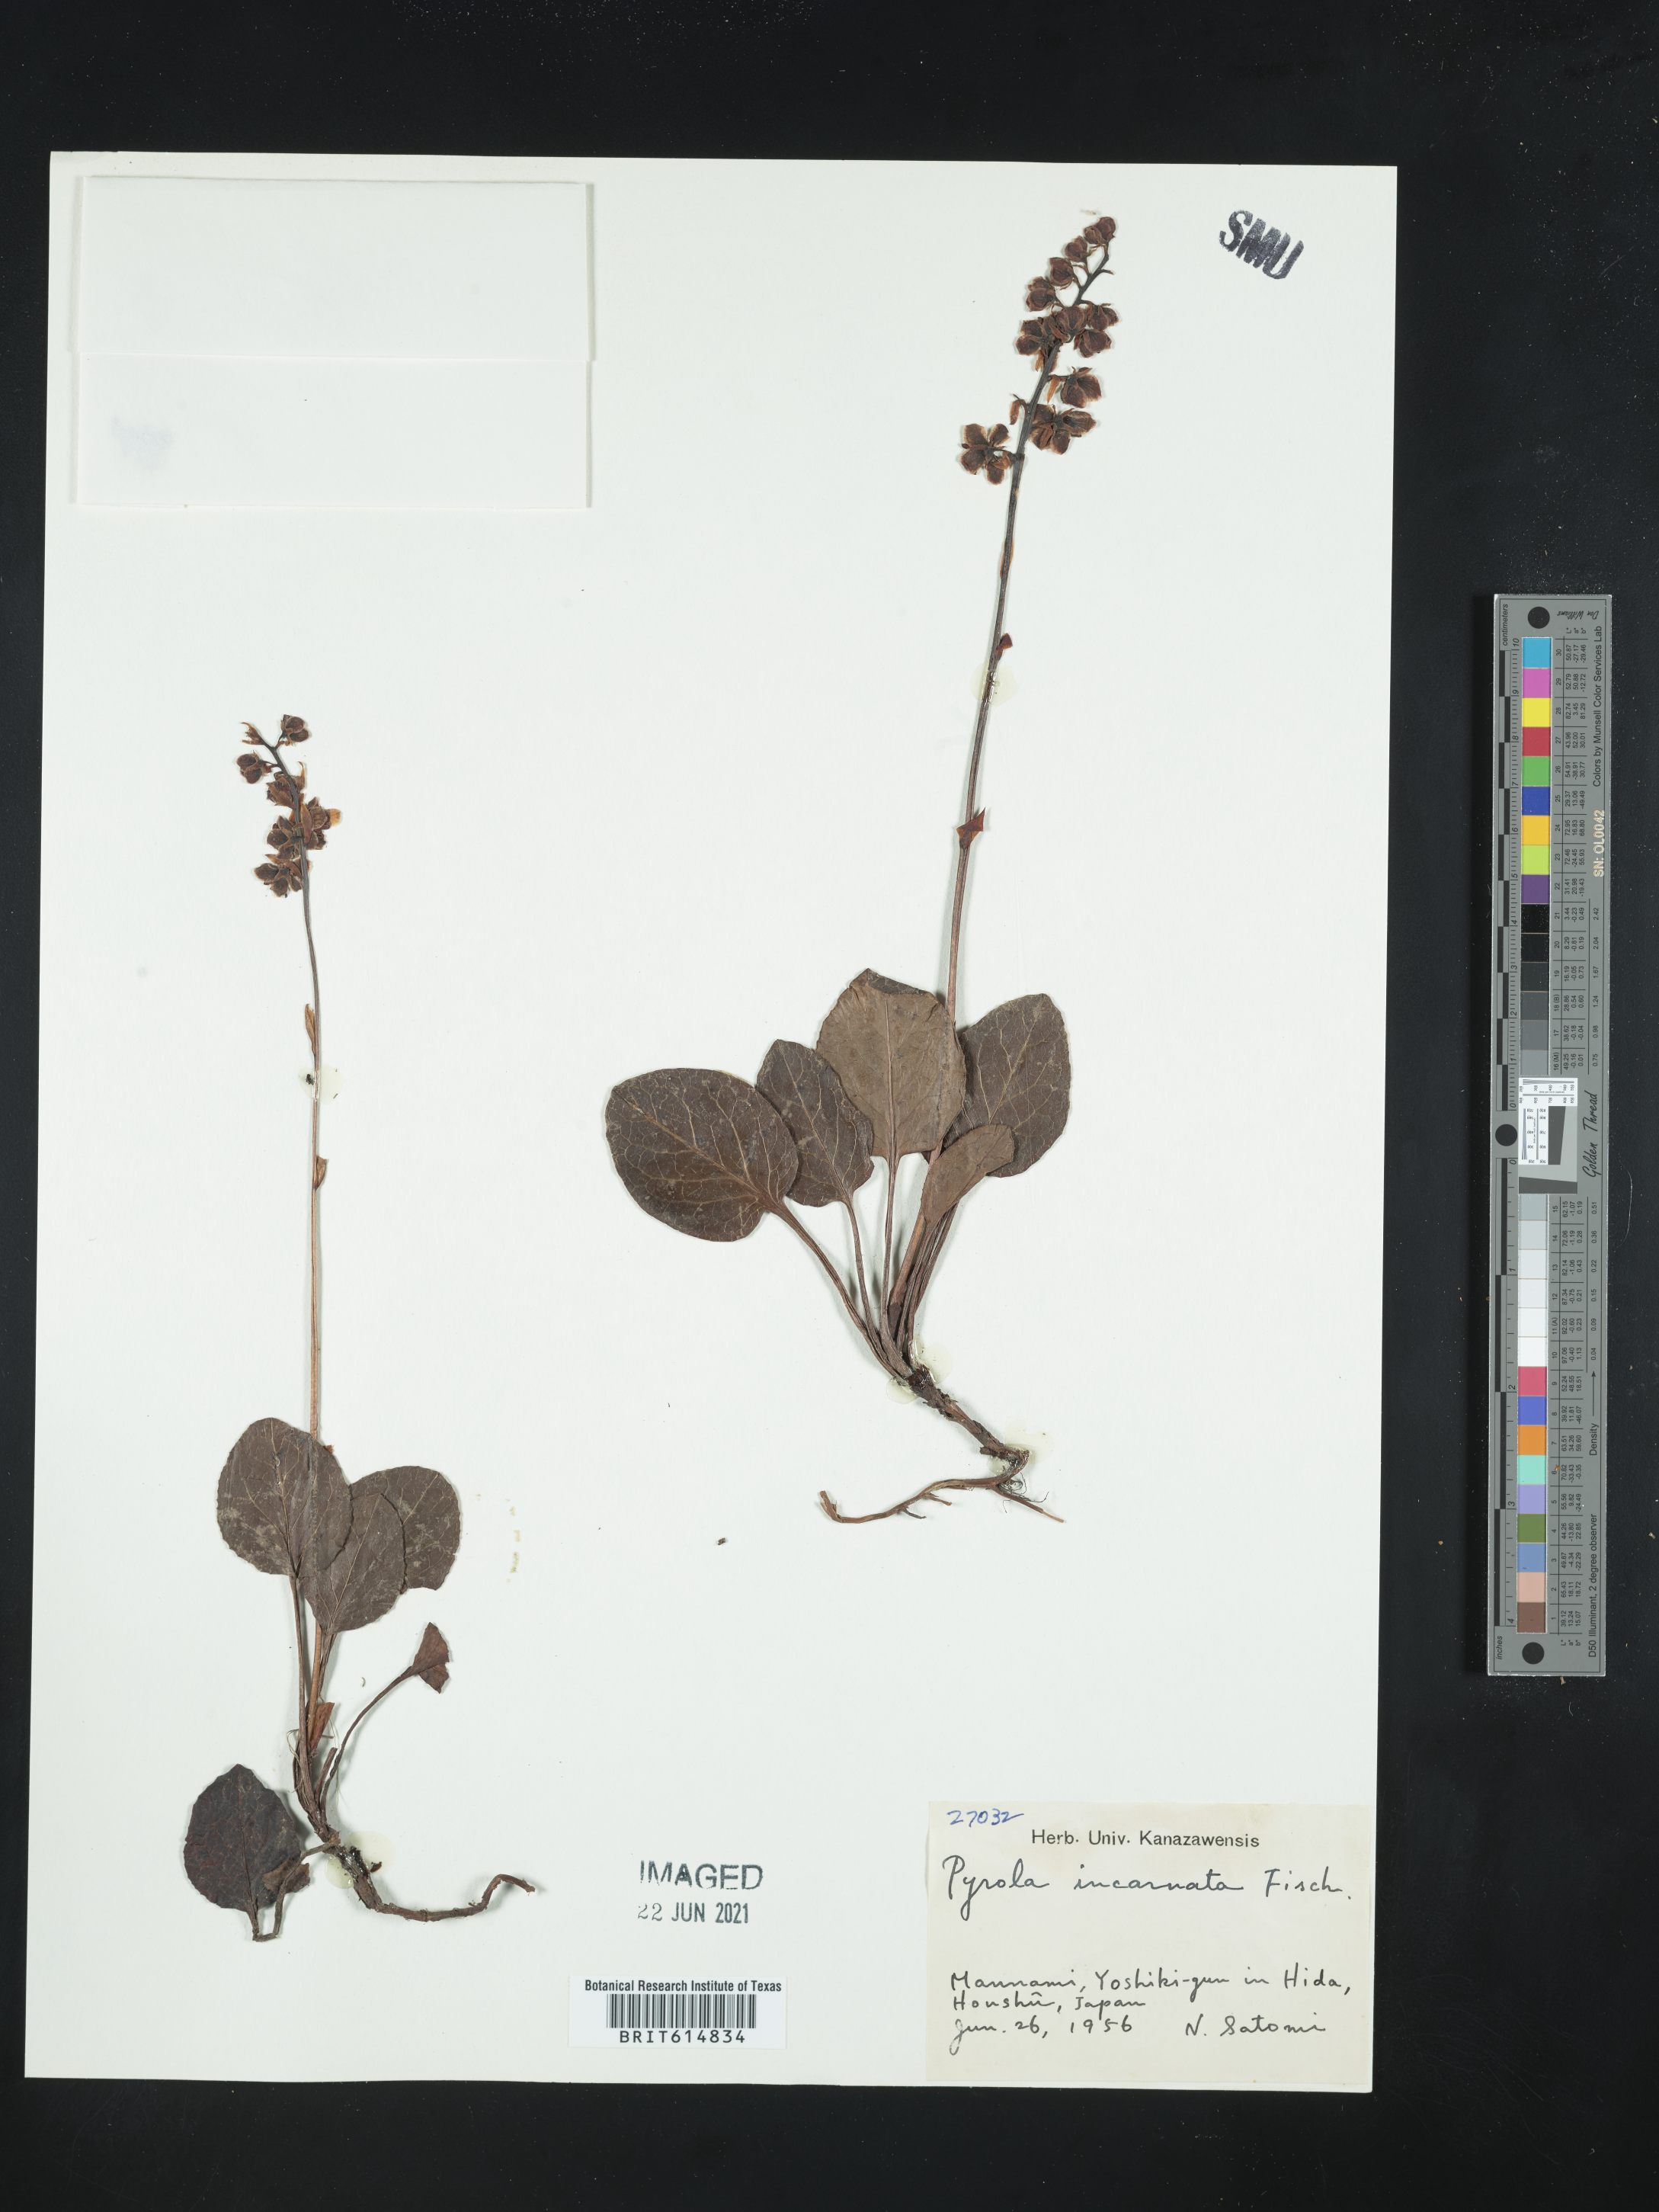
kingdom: Plantae
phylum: Tracheophyta
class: Magnoliopsida
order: Ericales
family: Ericaceae
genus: Pyrola
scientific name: Pyrola asarifolia
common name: Bog wintergreen
